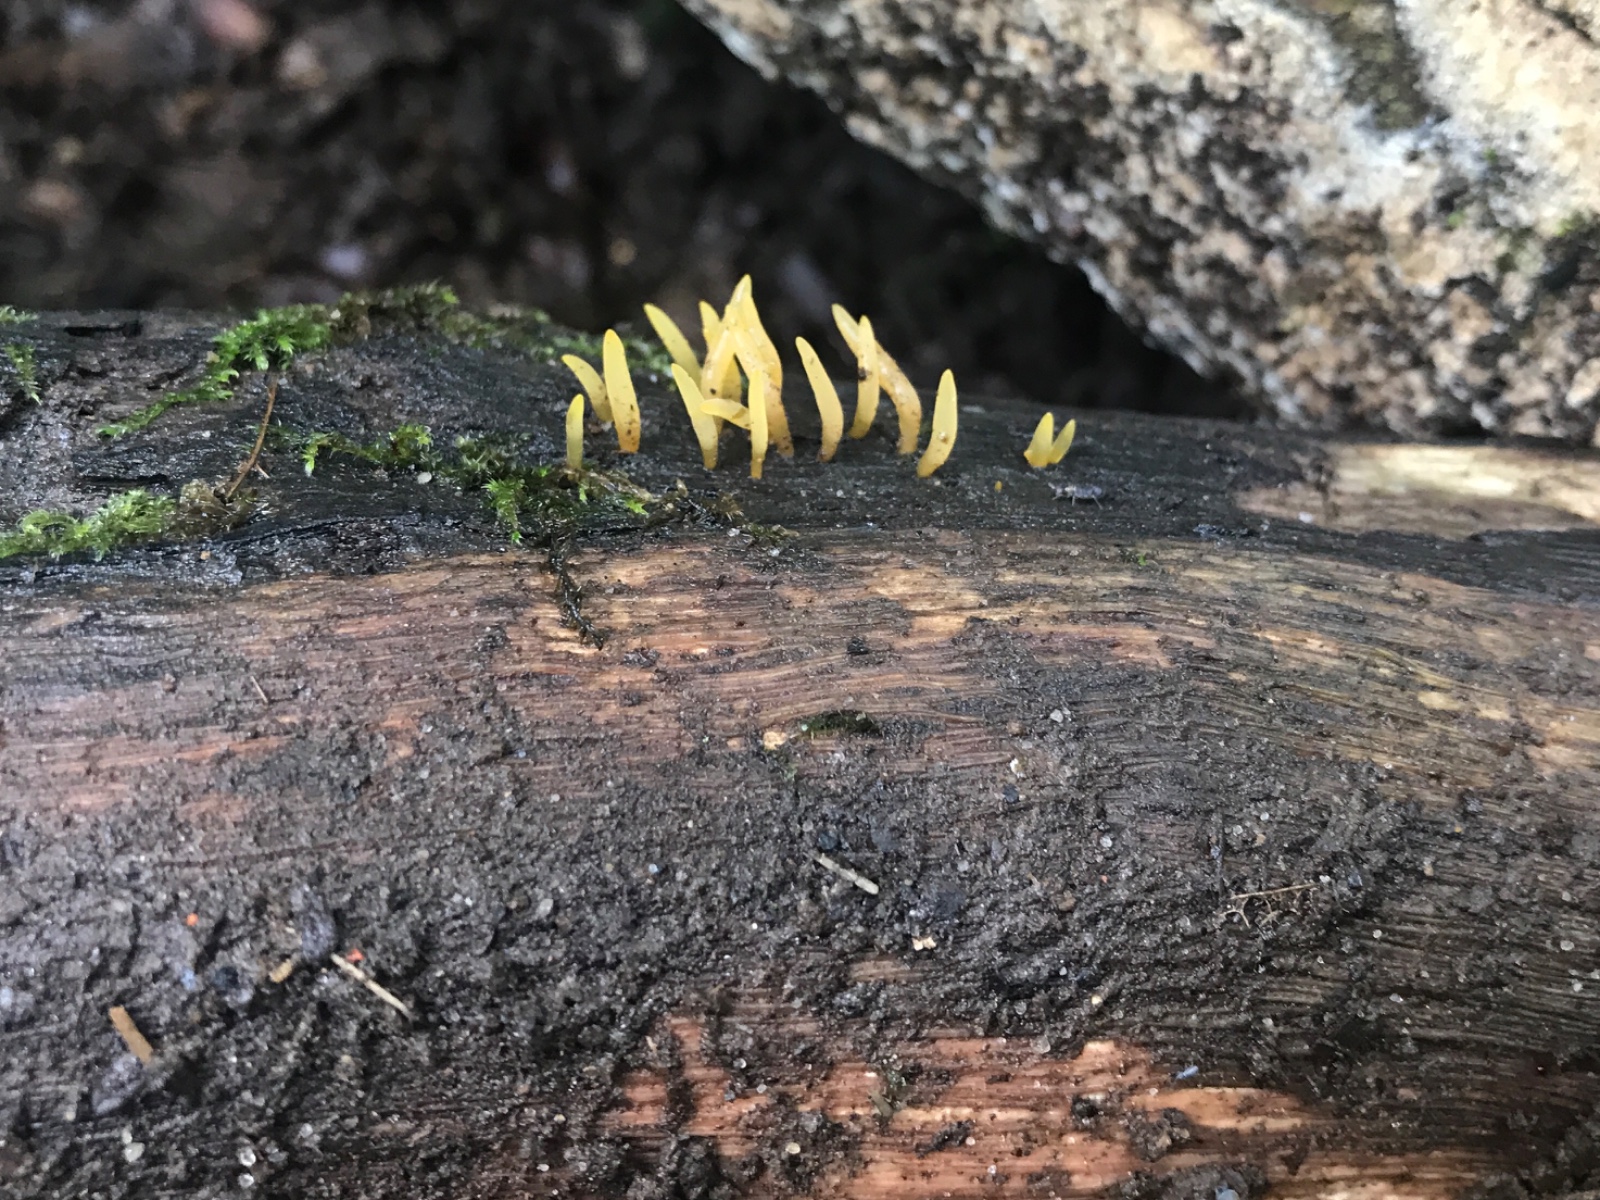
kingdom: Fungi
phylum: Basidiomycota
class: Dacrymycetes
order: Dacrymycetales
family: Dacrymycetaceae
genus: Calocera
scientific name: Calocera cornea
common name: liden guldgaffel
